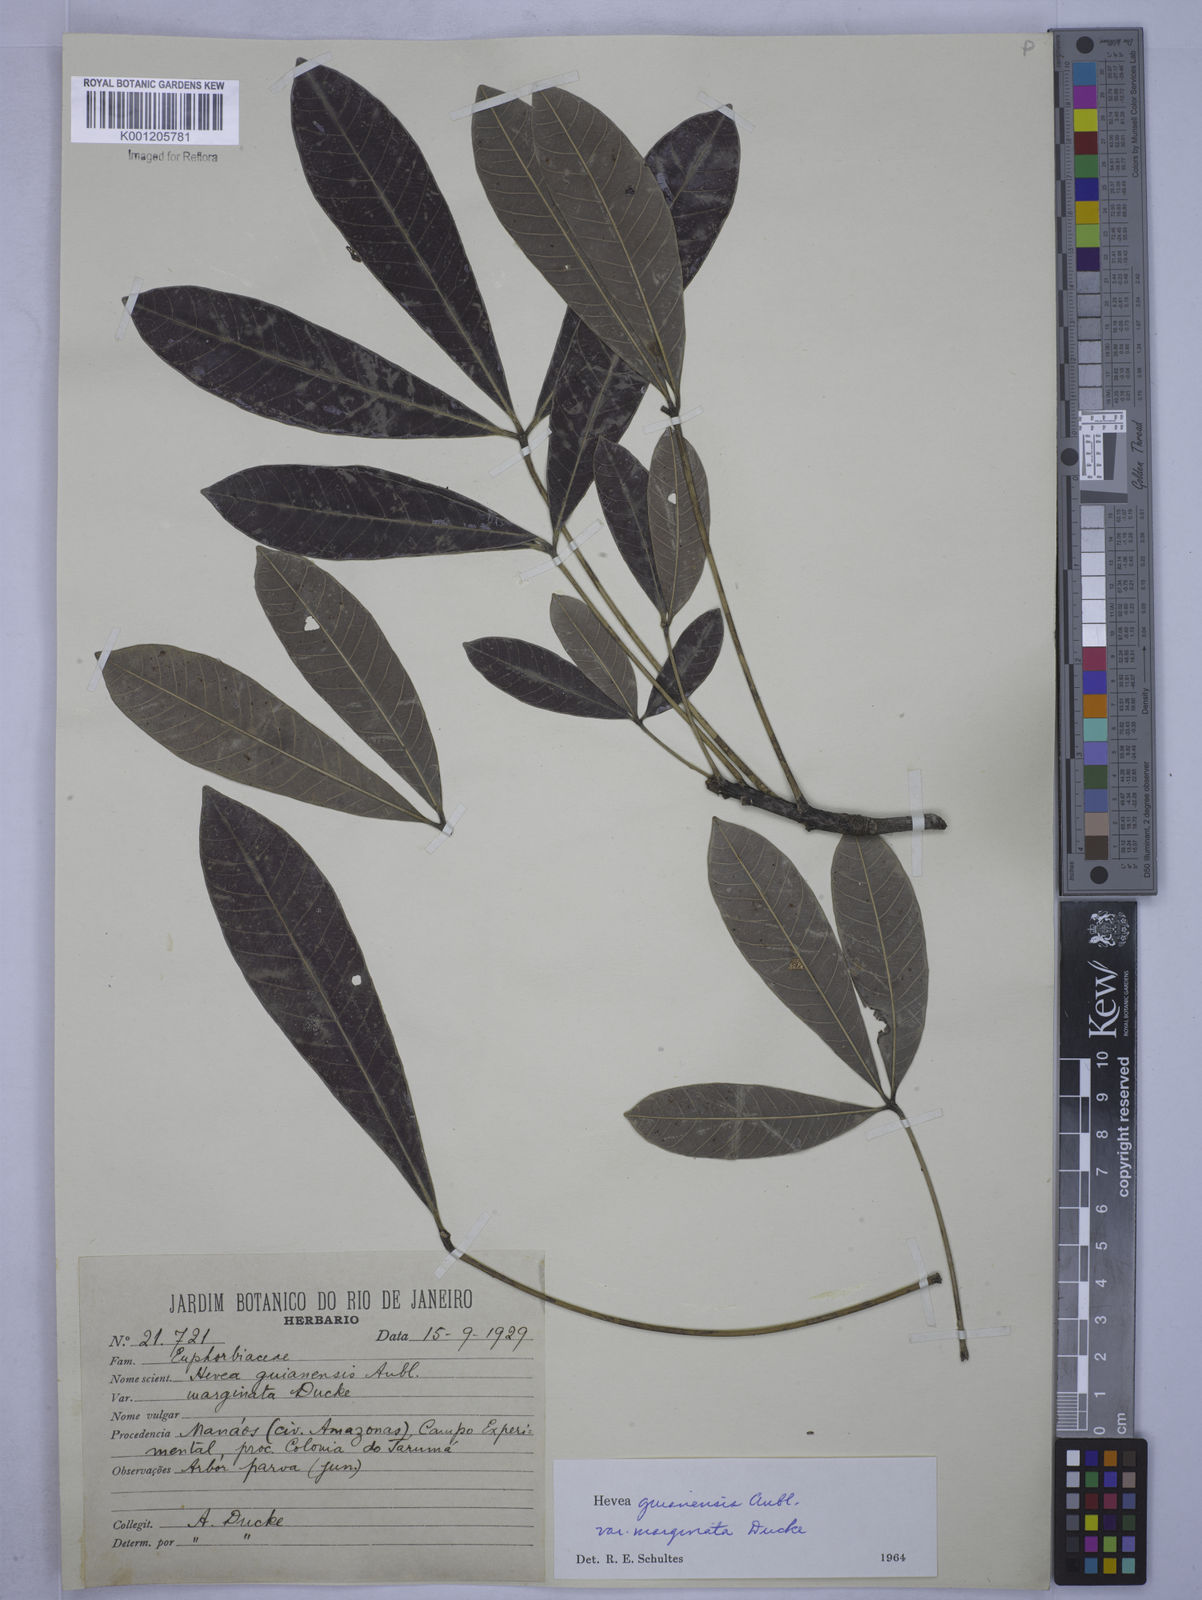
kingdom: Plantae
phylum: Tracheophyta
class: Magnoliopsida
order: Malpighiales
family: Euphorbiaceae
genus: Hevea
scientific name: Hevea guianensis
